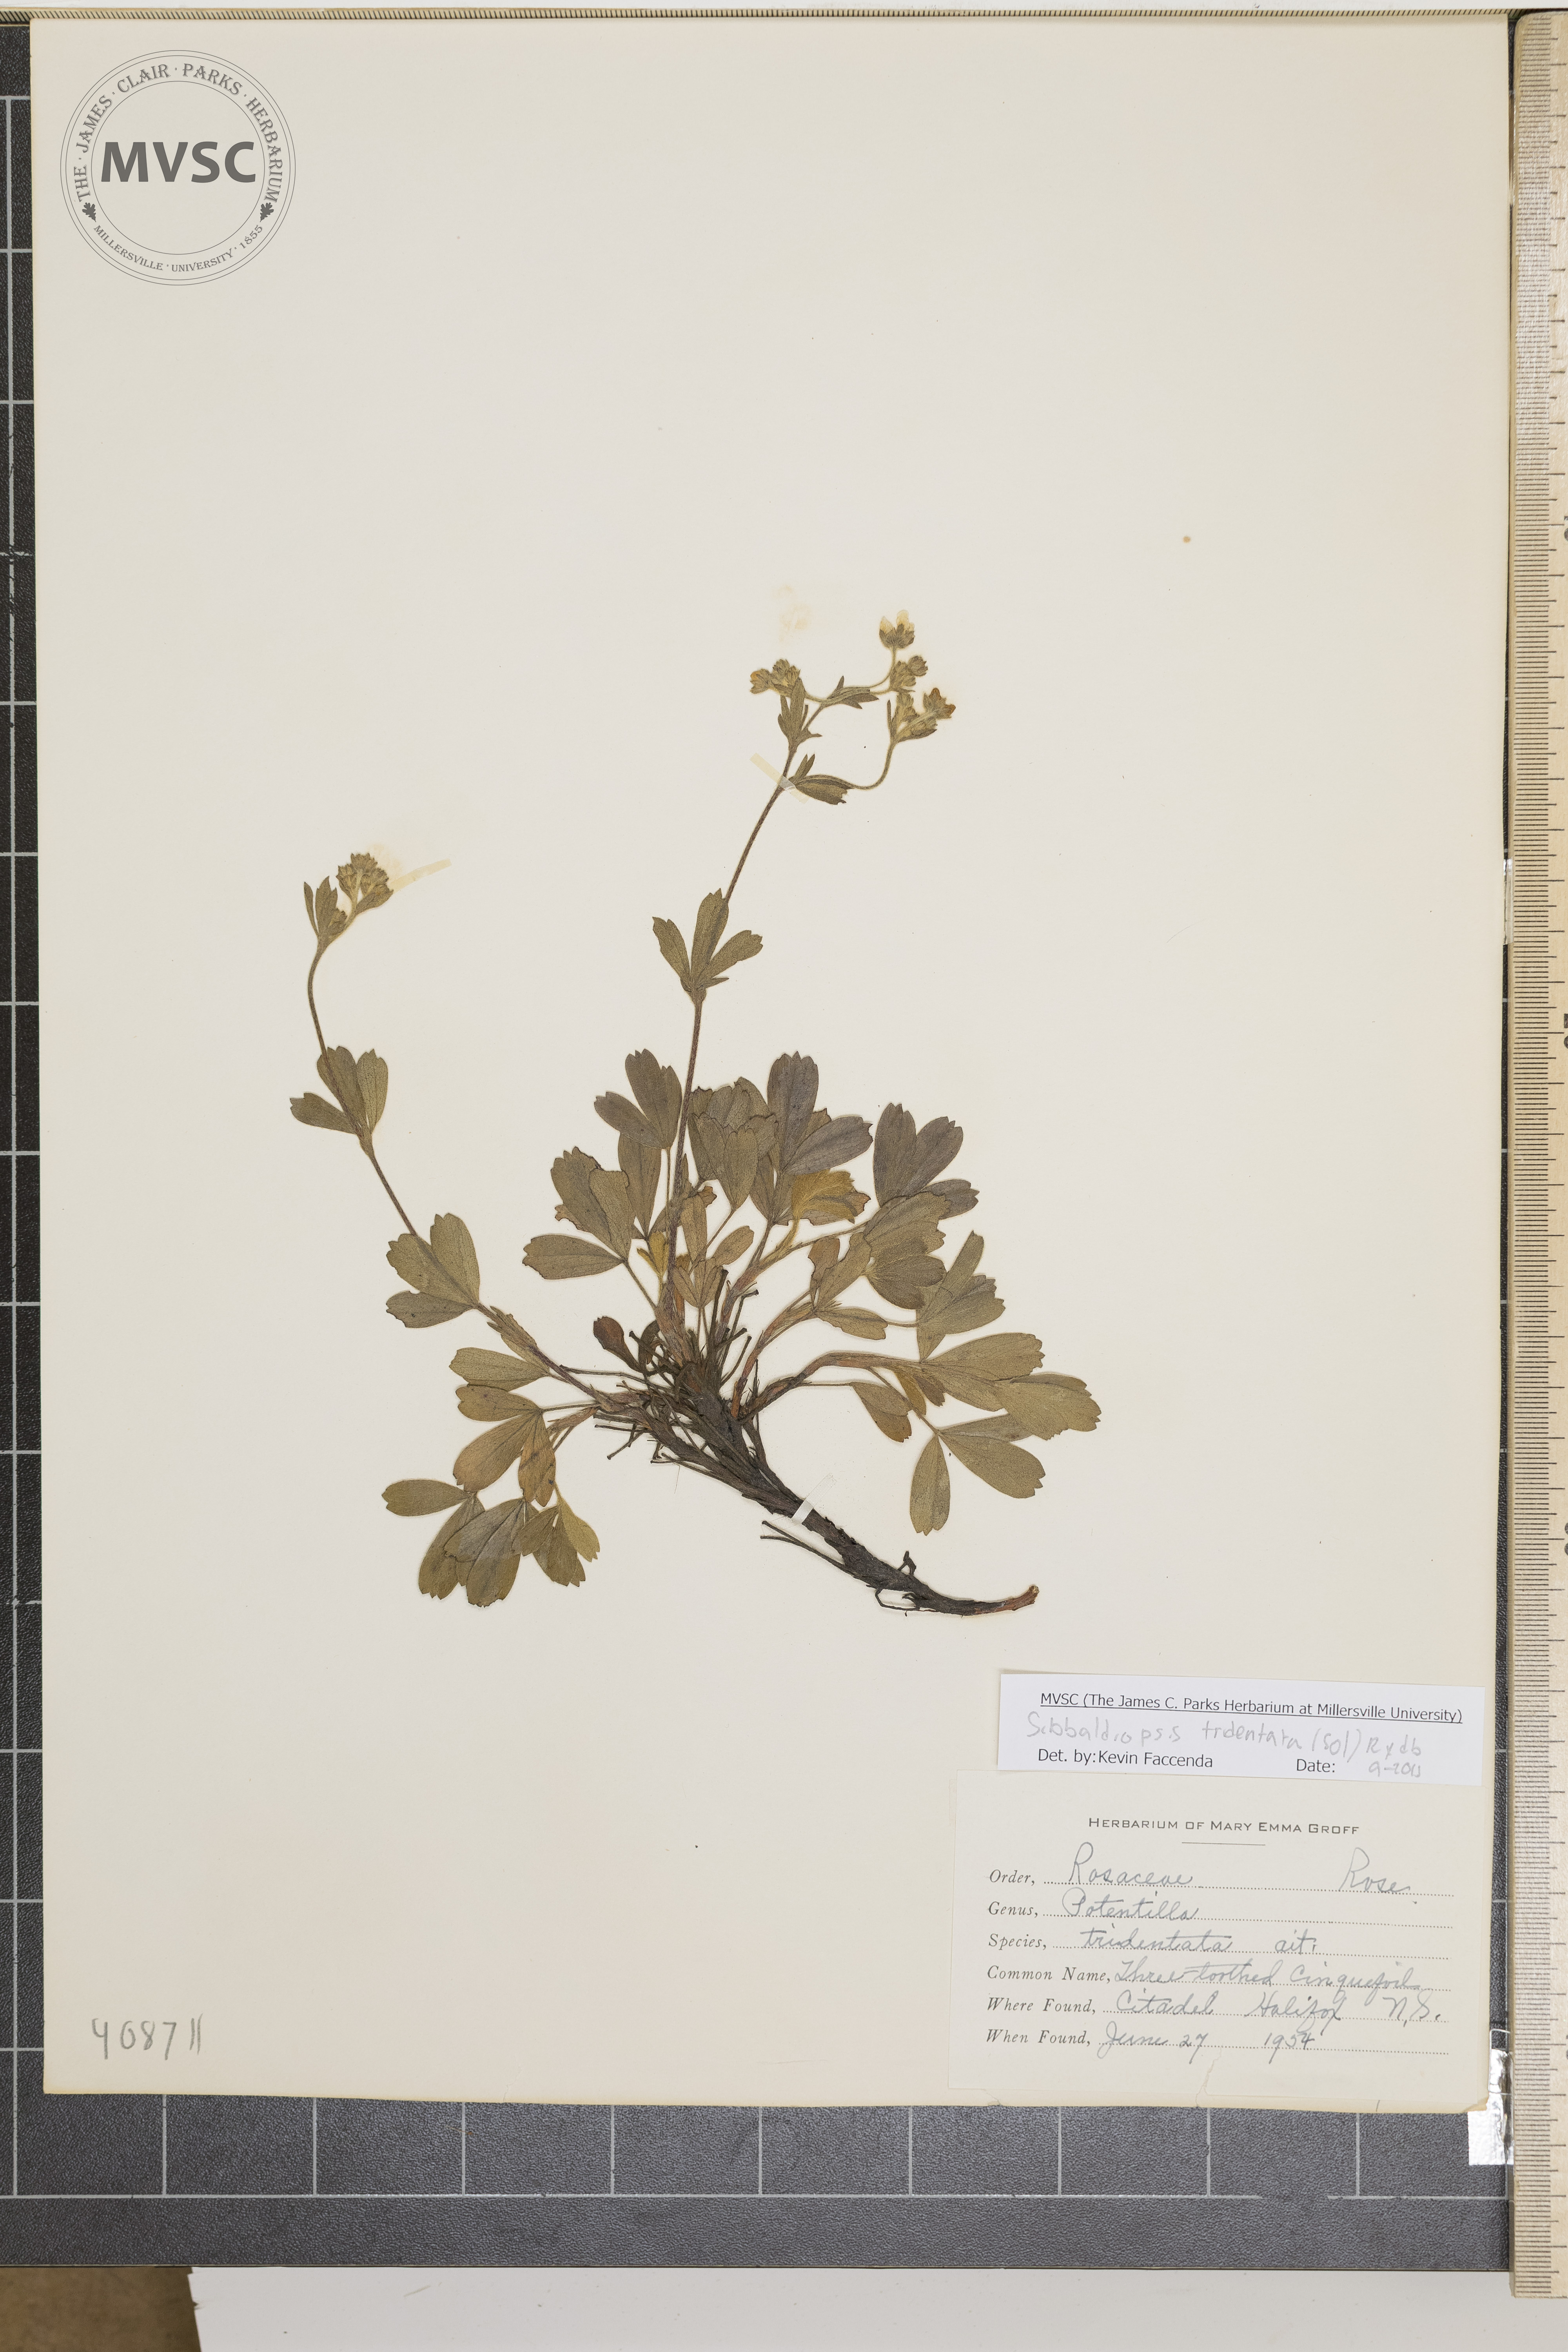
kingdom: Plantae
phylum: Tracheophyta
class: Magnoliopsida
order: Rosales
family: Rosaceae
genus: Sibbaldia
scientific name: Sibbaldia tridentata
